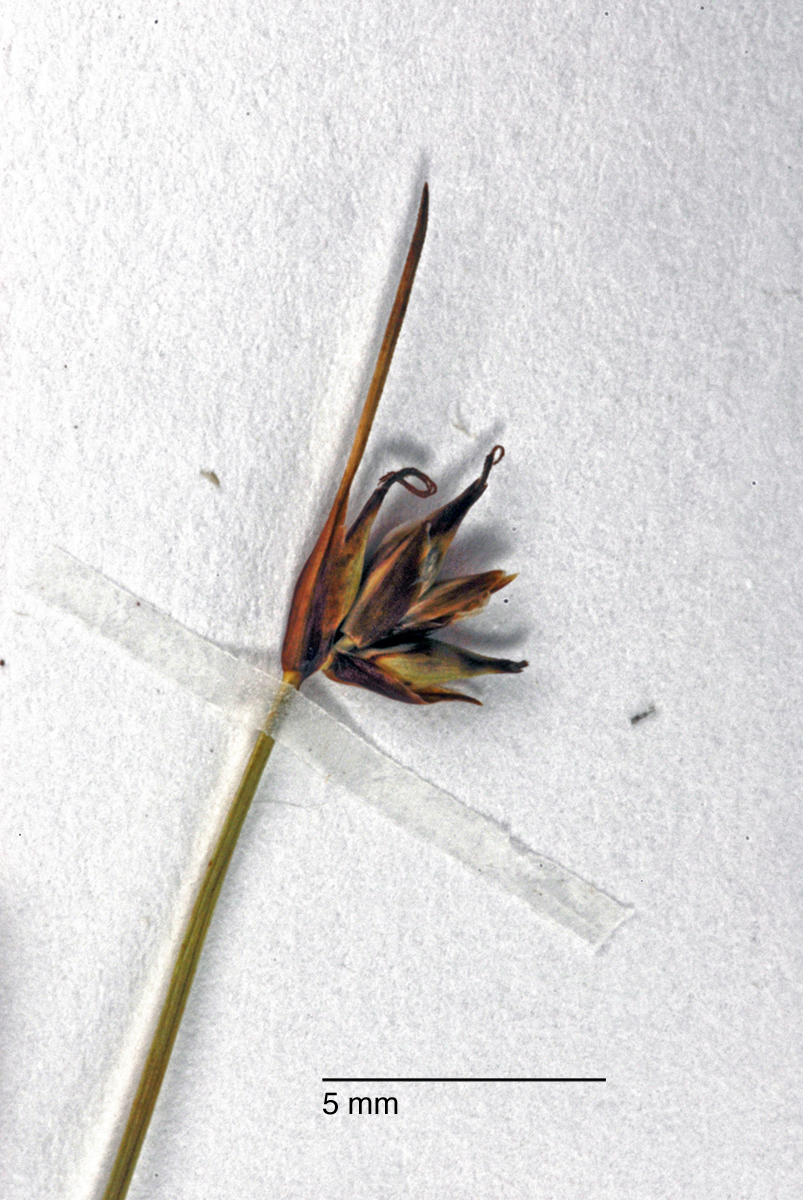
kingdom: Plantae
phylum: Tracheophyta
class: Liliopsida
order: Poales
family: Cyperaceae
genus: Carex
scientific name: Carex enysii
